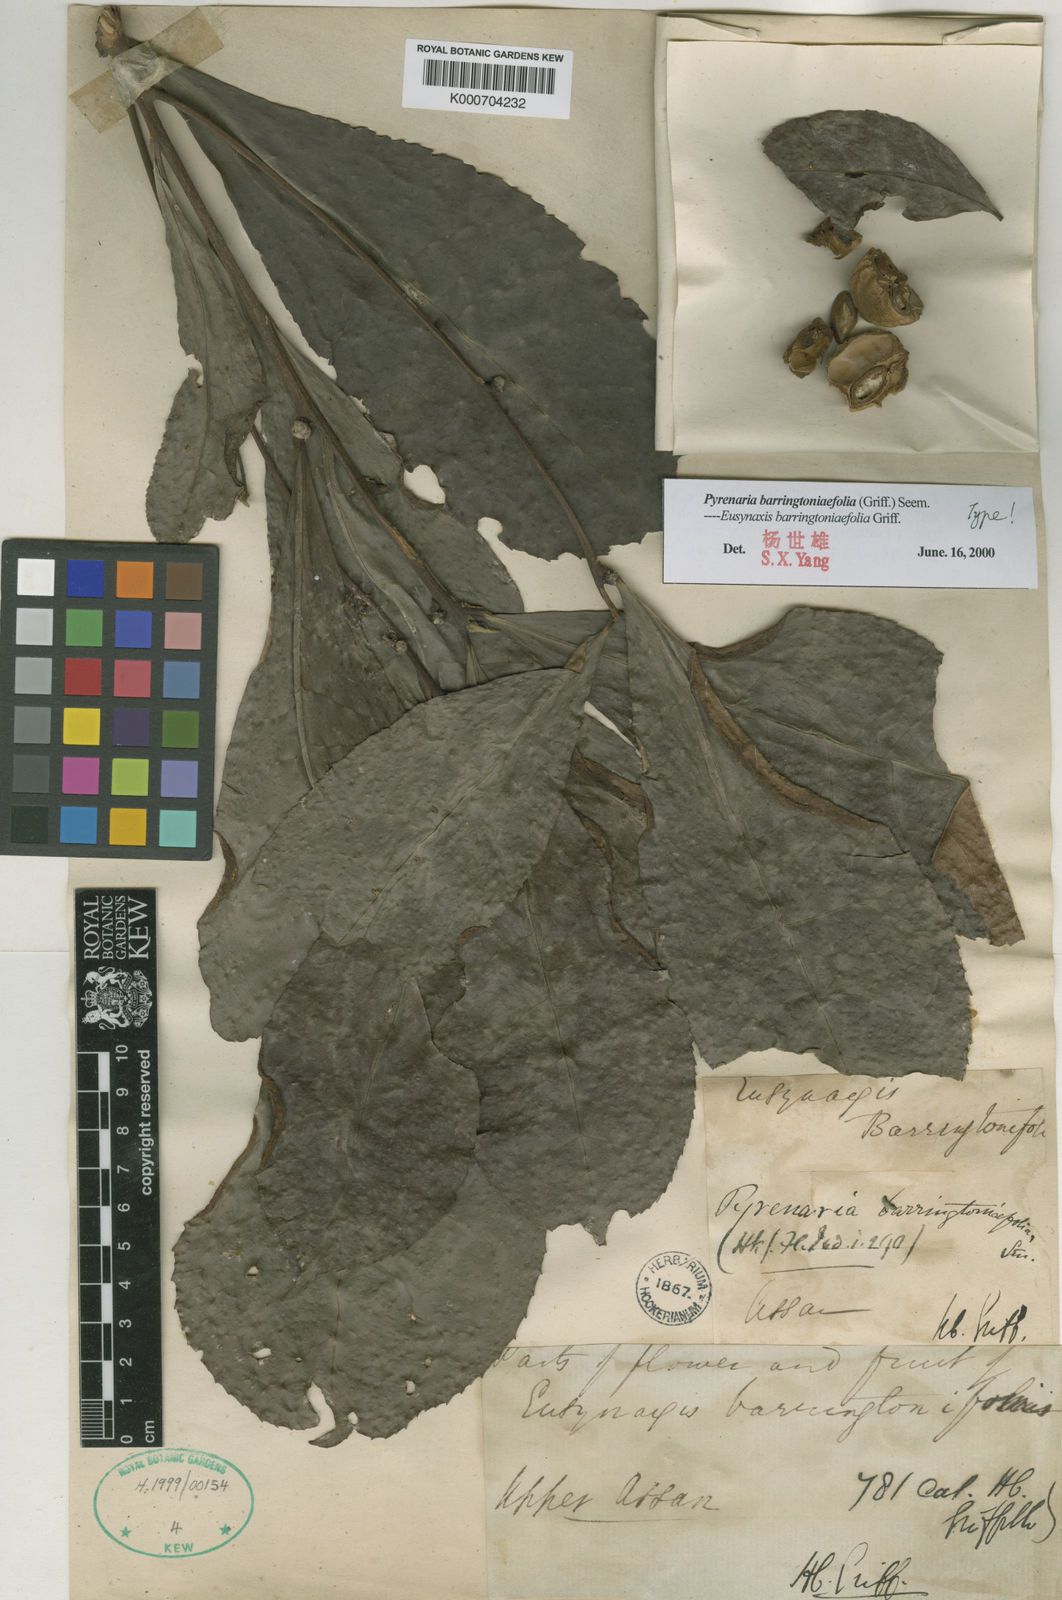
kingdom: Plantae
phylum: Tracheophyta
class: Magnoliopsida
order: Ericales
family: Theaceae
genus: Pyrenaria
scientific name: Pyrenaria barringtoniifolia
